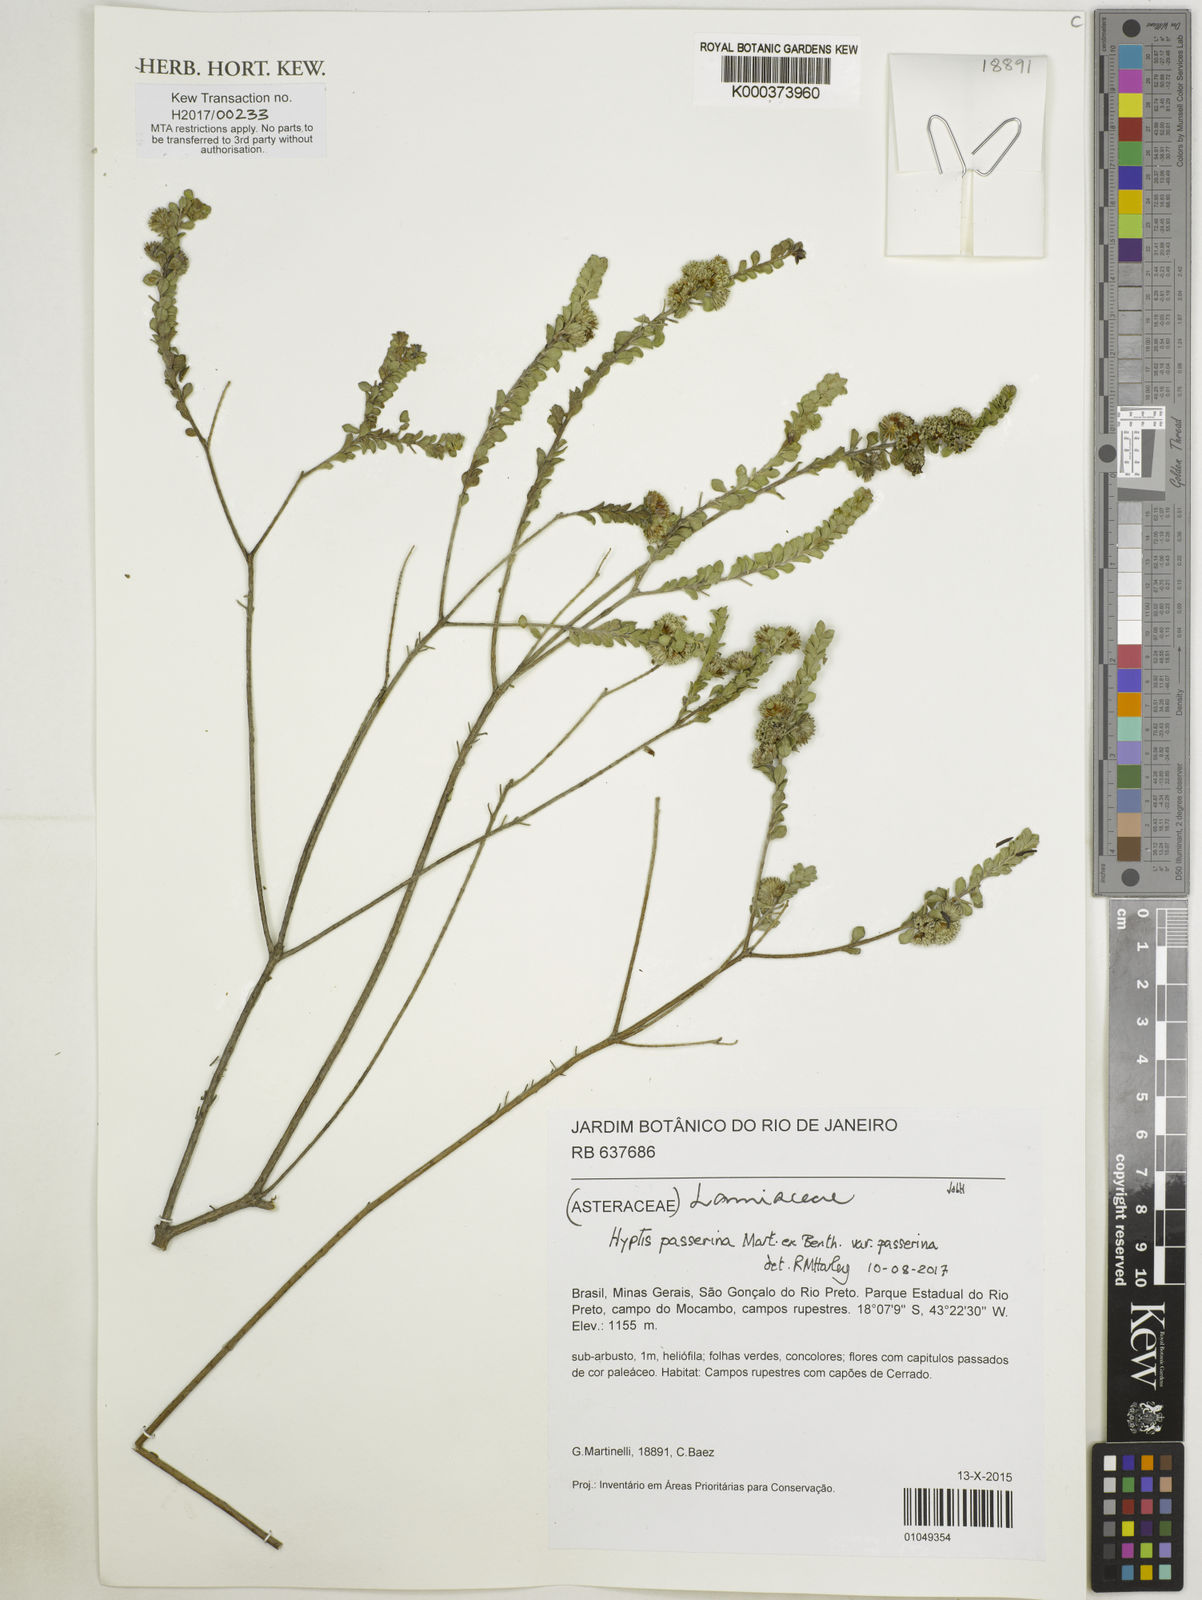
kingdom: Plantae
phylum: Tracheophyta
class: Magnoliopsida
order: Lamiales
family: Lamiaceae
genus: Hyptis
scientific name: Hyptis
